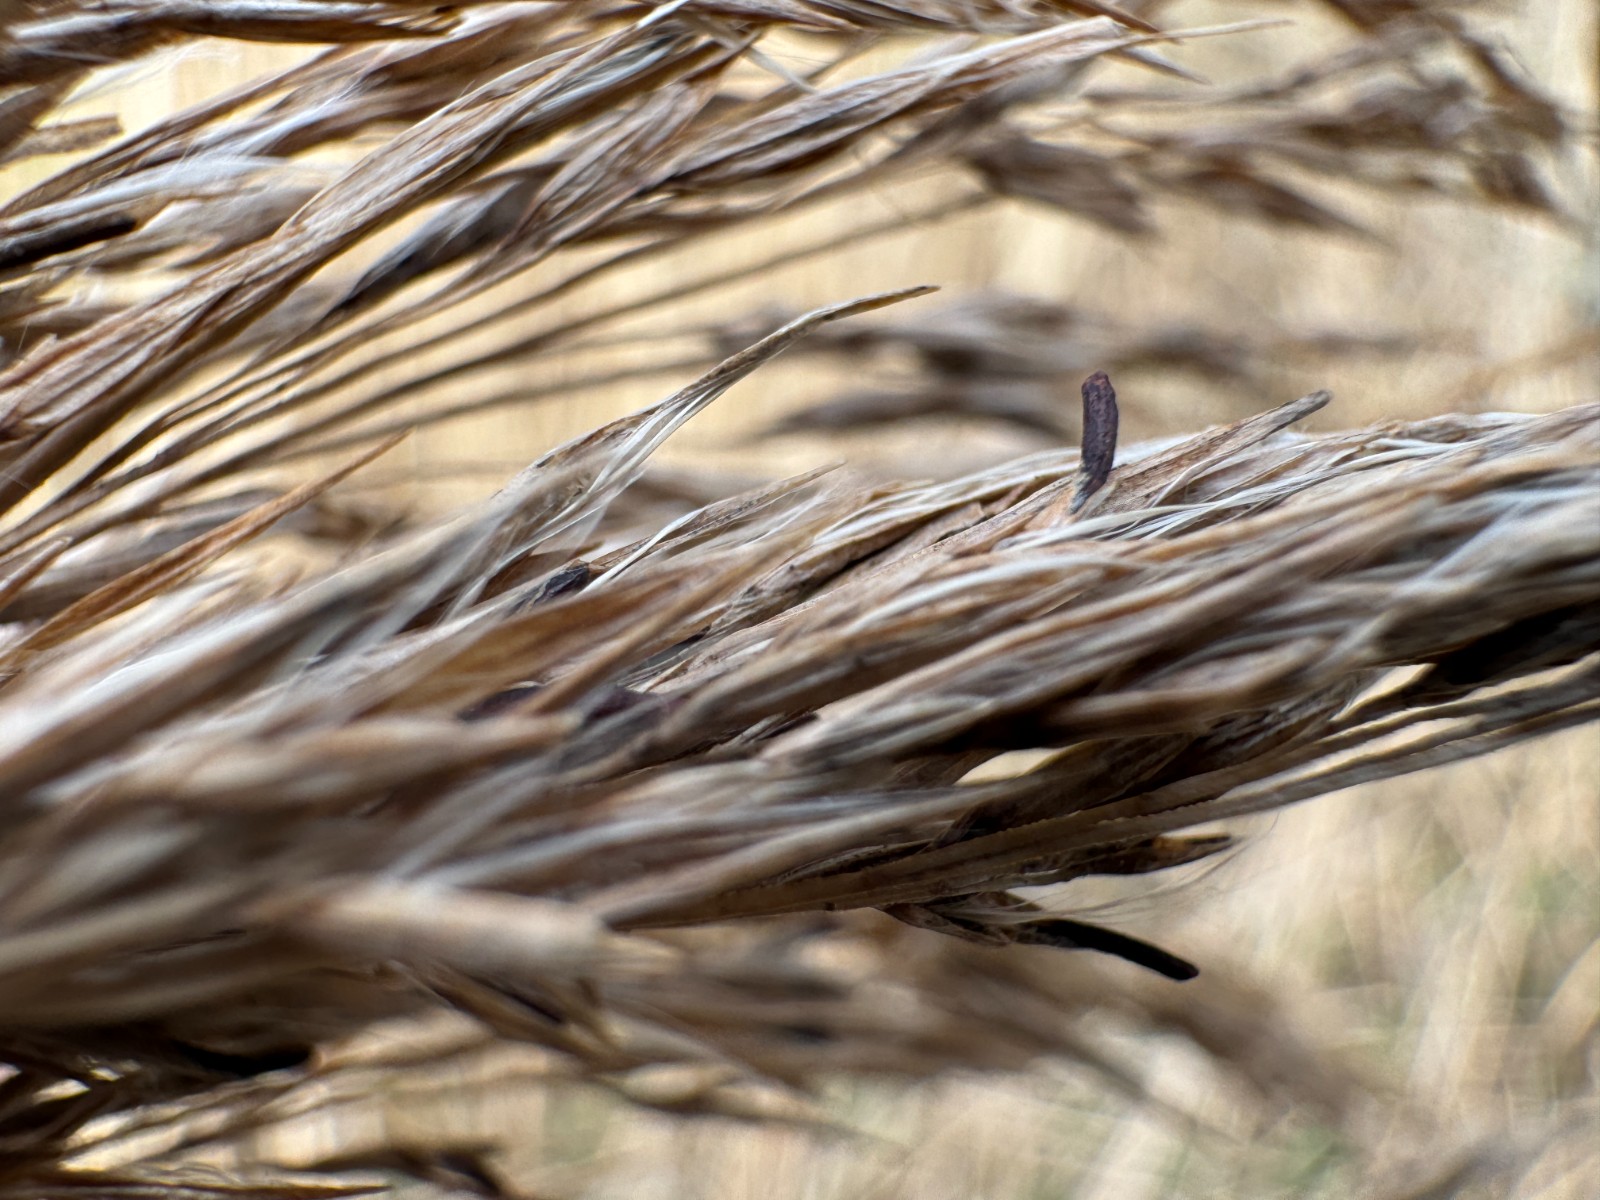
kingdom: Fungi
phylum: Ascomycota
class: Sordariomycetes
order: Hypocreales
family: Clavicipitaceae
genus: Claviceps
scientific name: Claviceps arundinis
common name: tagrør-meldrøjer
